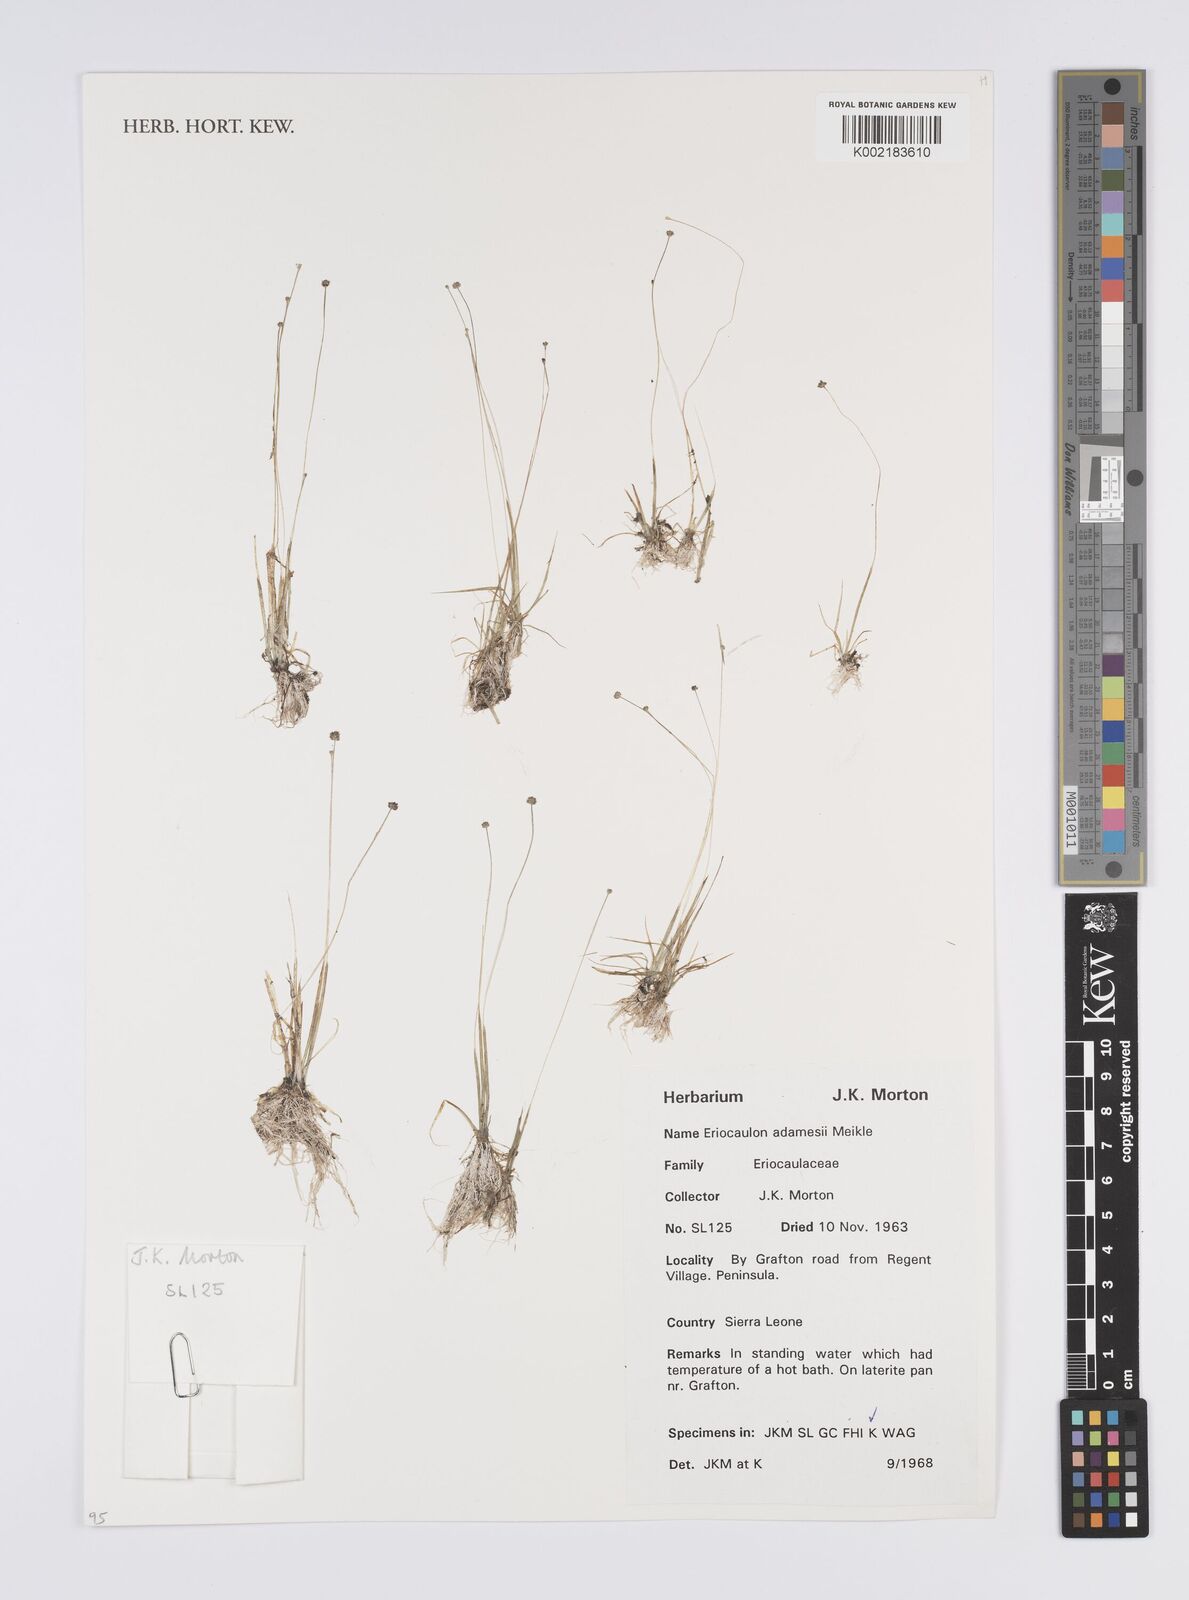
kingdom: Plantae
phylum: Tracheophyta
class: Liliopsida
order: Poales
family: Eriocaulaceae
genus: Eriocaulon
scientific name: Eriocaulon adamesii
